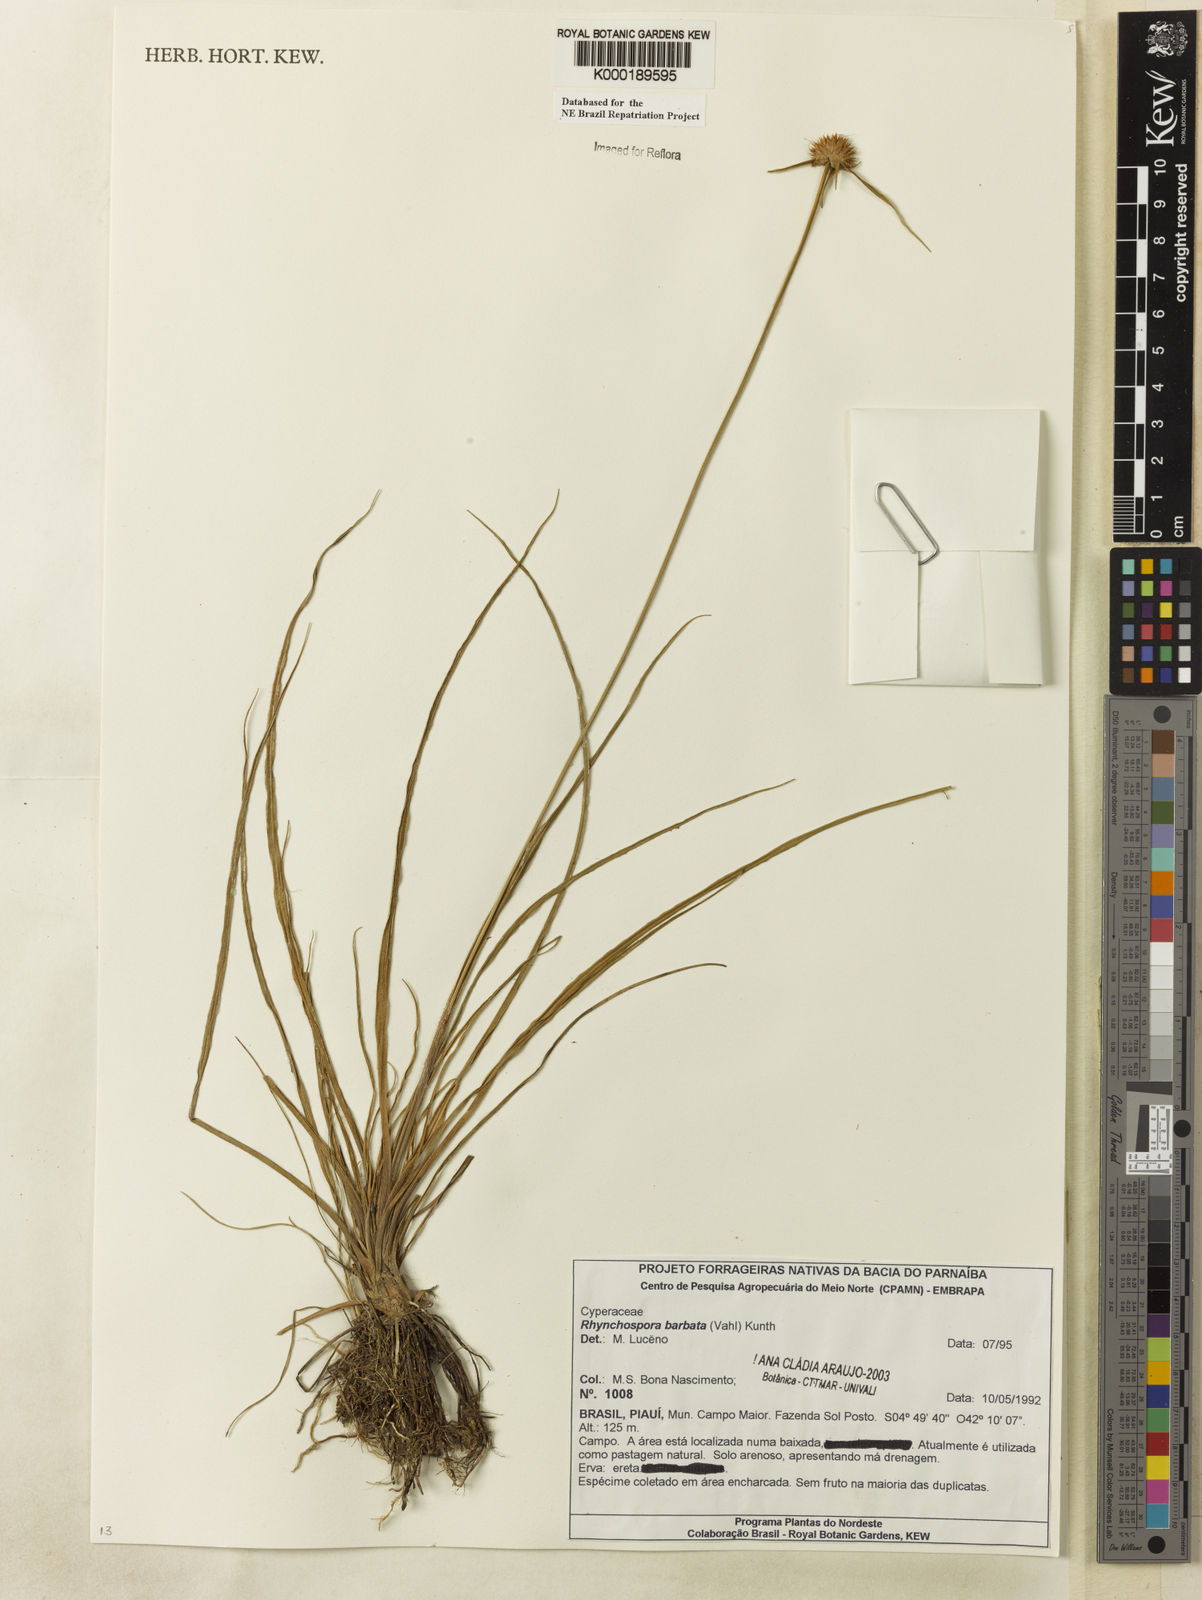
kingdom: Plantae
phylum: Tracheophyta
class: Liliopsida
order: Poales
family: Cyperaceae
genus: Rhynchospora
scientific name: Rhynchospora barbata
